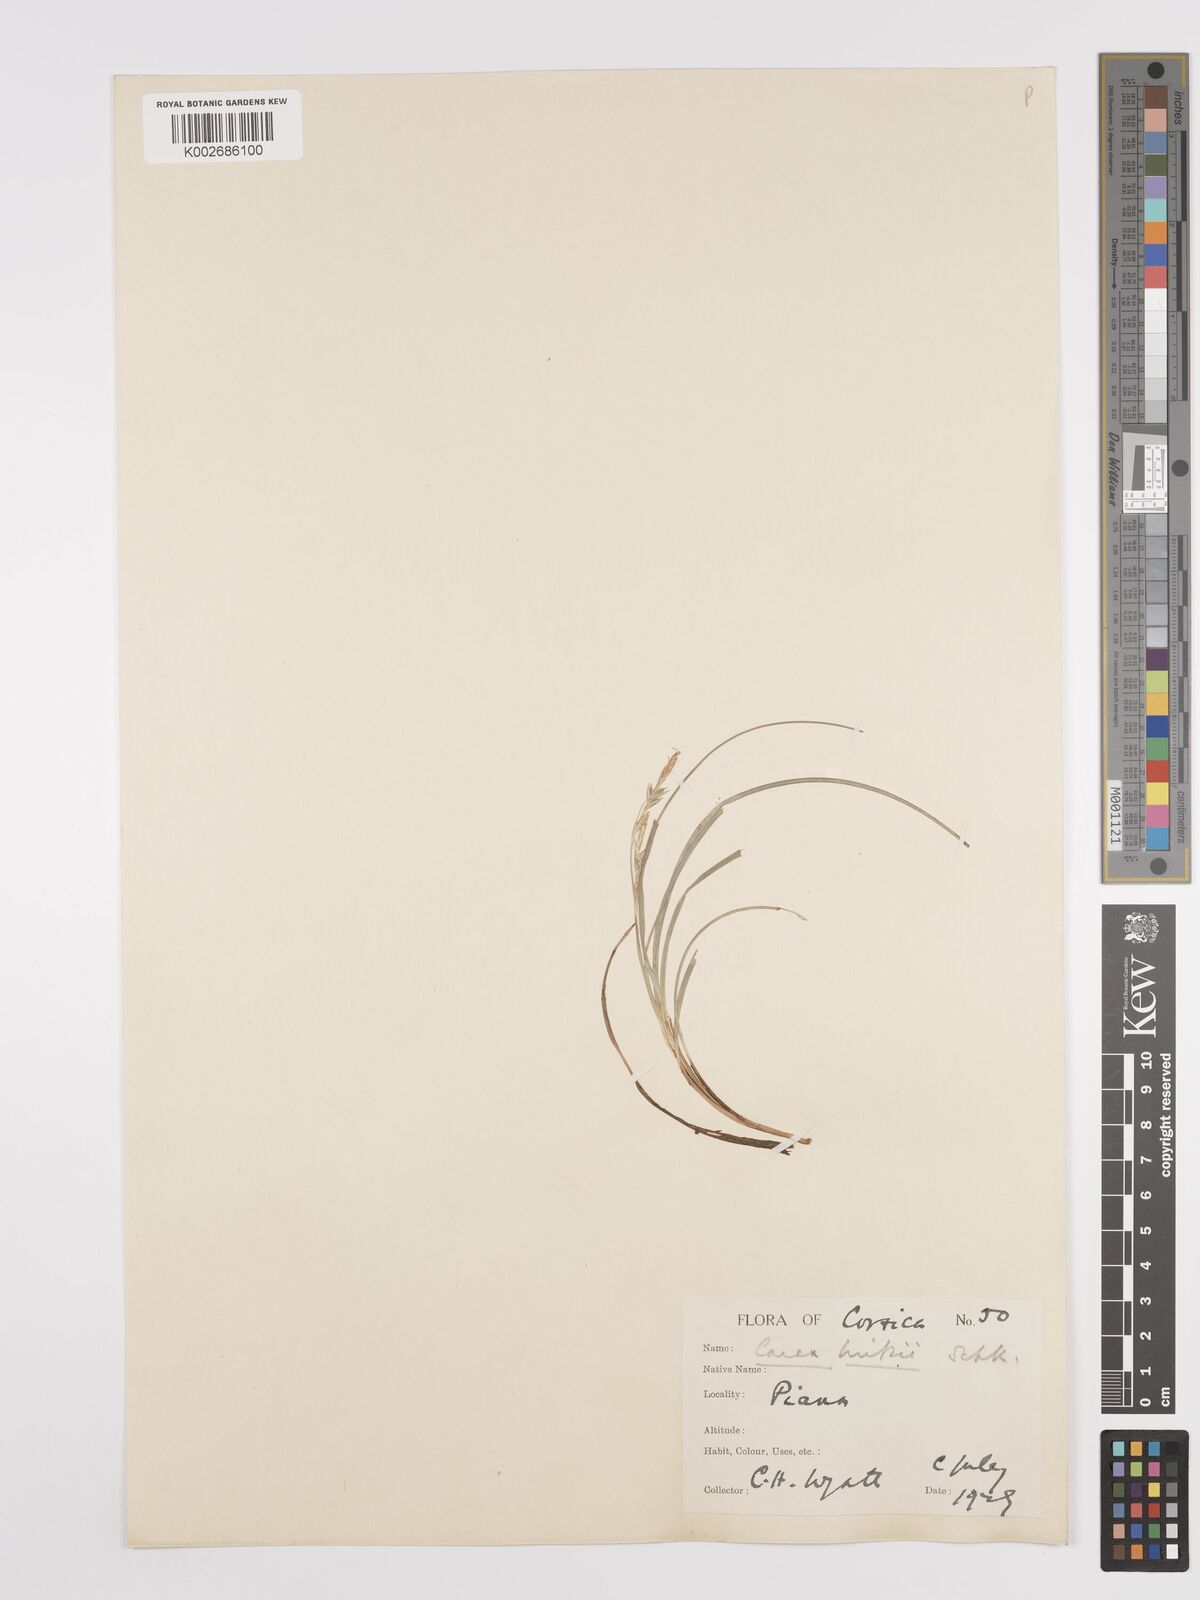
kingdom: Plantae
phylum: Tracheophyta
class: Liliopsida
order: Poales
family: Cyperaceae
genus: Carex
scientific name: Carex distachya
